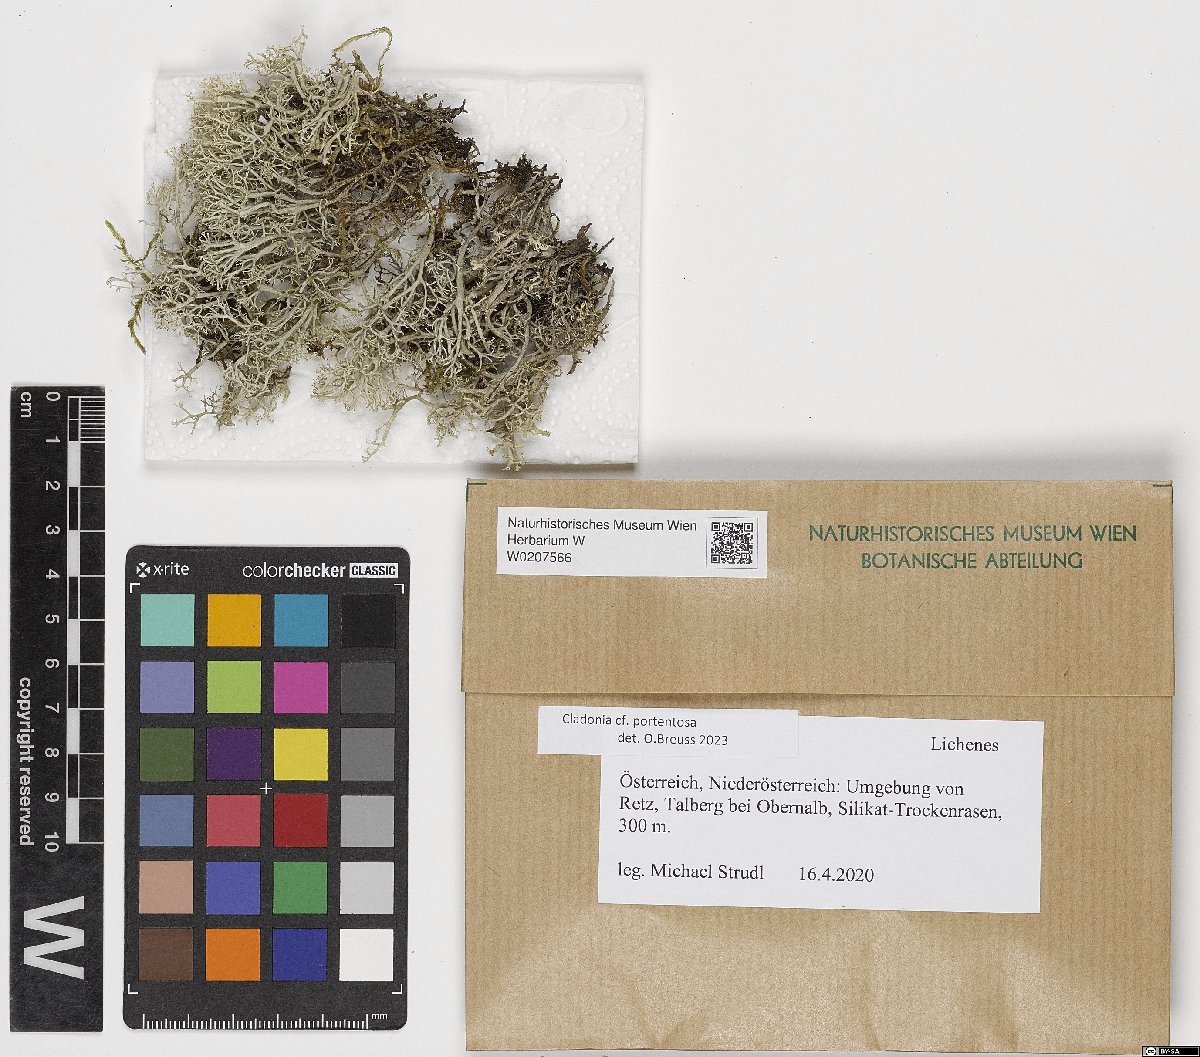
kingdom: Fungi
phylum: Ascomycota
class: Lecanoromycetes
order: Lecanorales
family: Cladoniaceae
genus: Cladonia
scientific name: Cladonia portentosa
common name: Reindeer lichen
